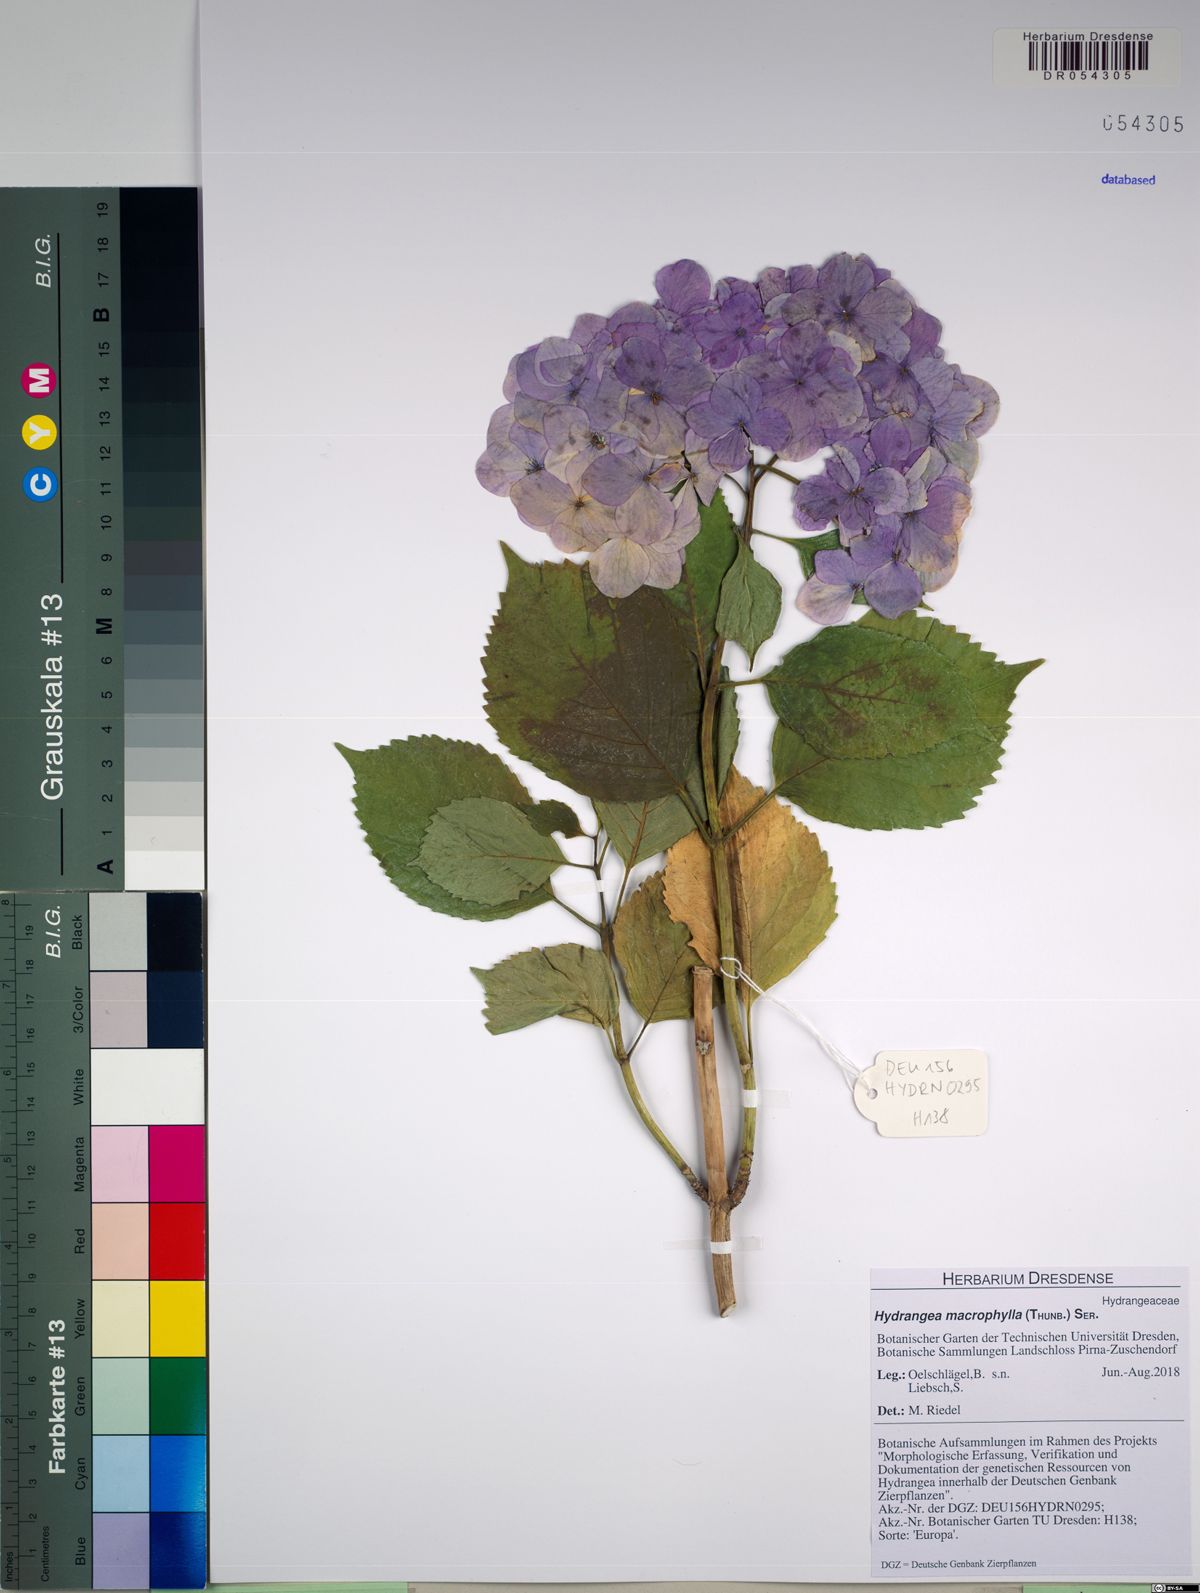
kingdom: Plantae
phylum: Tracheophyta
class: Magnoliopsida
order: Cornales
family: Hydrangeaceae
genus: Hydrangea
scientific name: Hydrangea macrophylla
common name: Hydrangea
